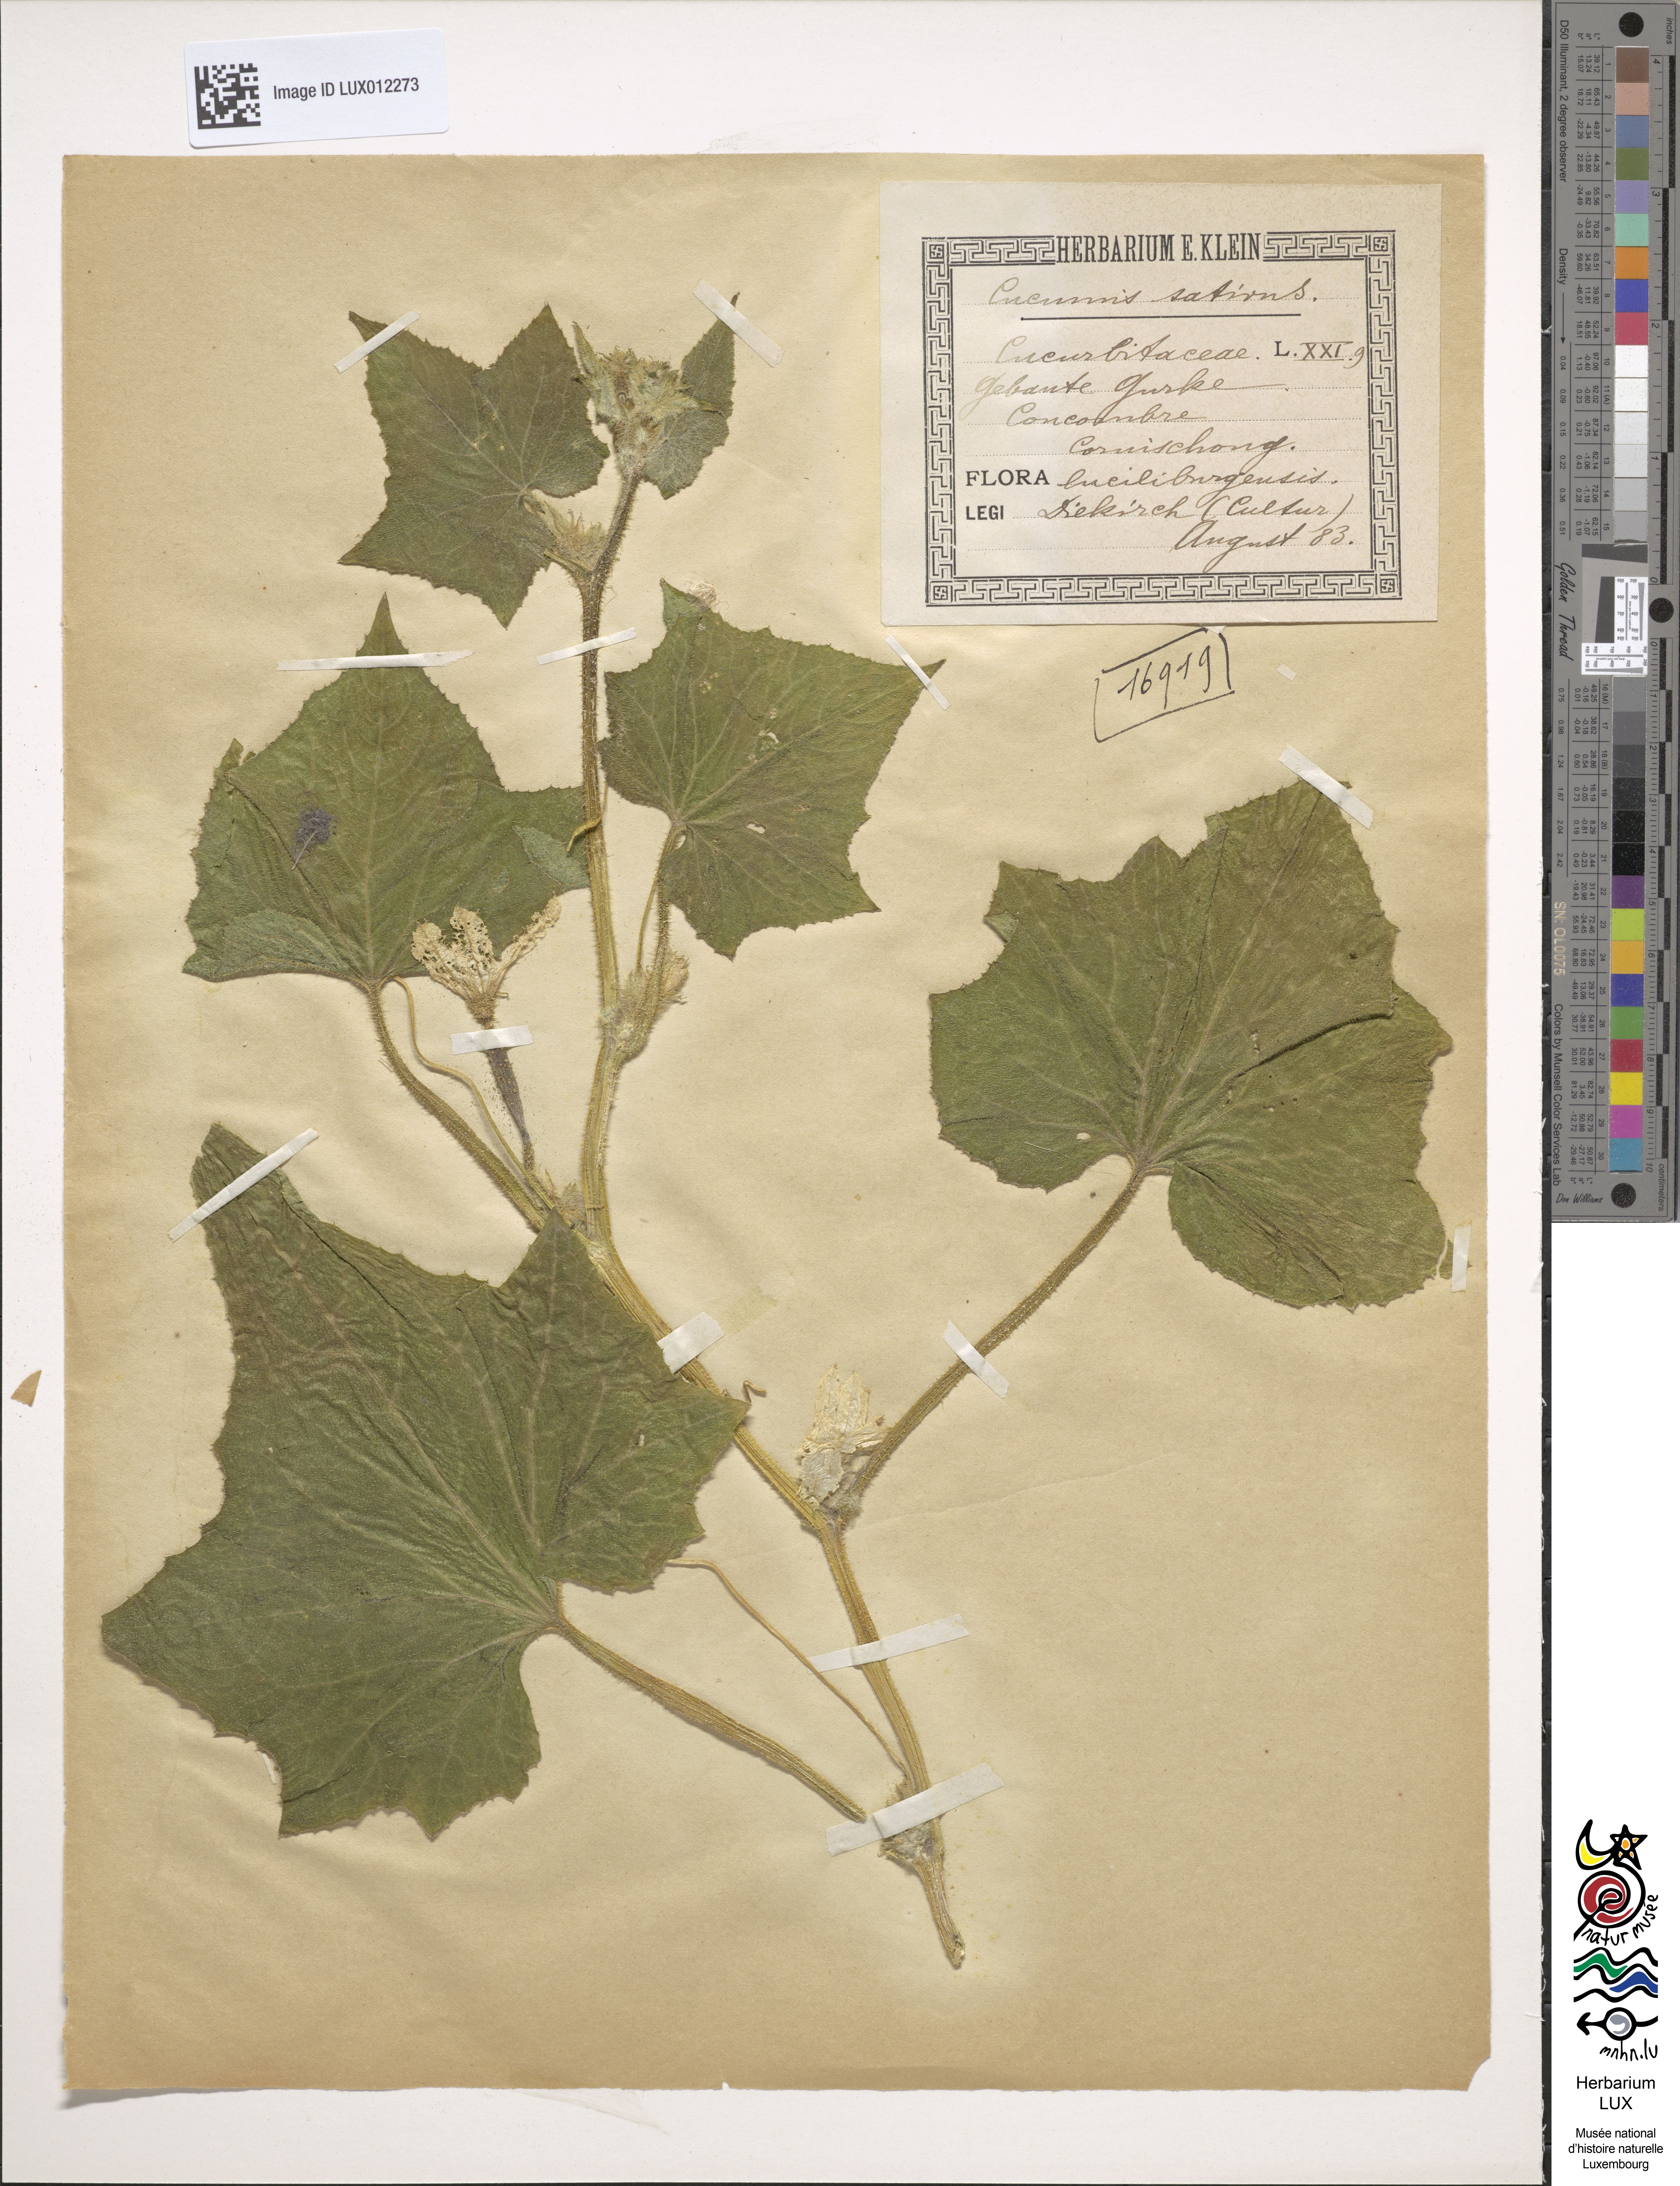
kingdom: Plantae
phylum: Tracheophyta
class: Magnoliopsida
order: Cucurbitales
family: Cucurbitaceae
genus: Cucumis
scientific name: Cucumis sativus
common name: Cucumber
